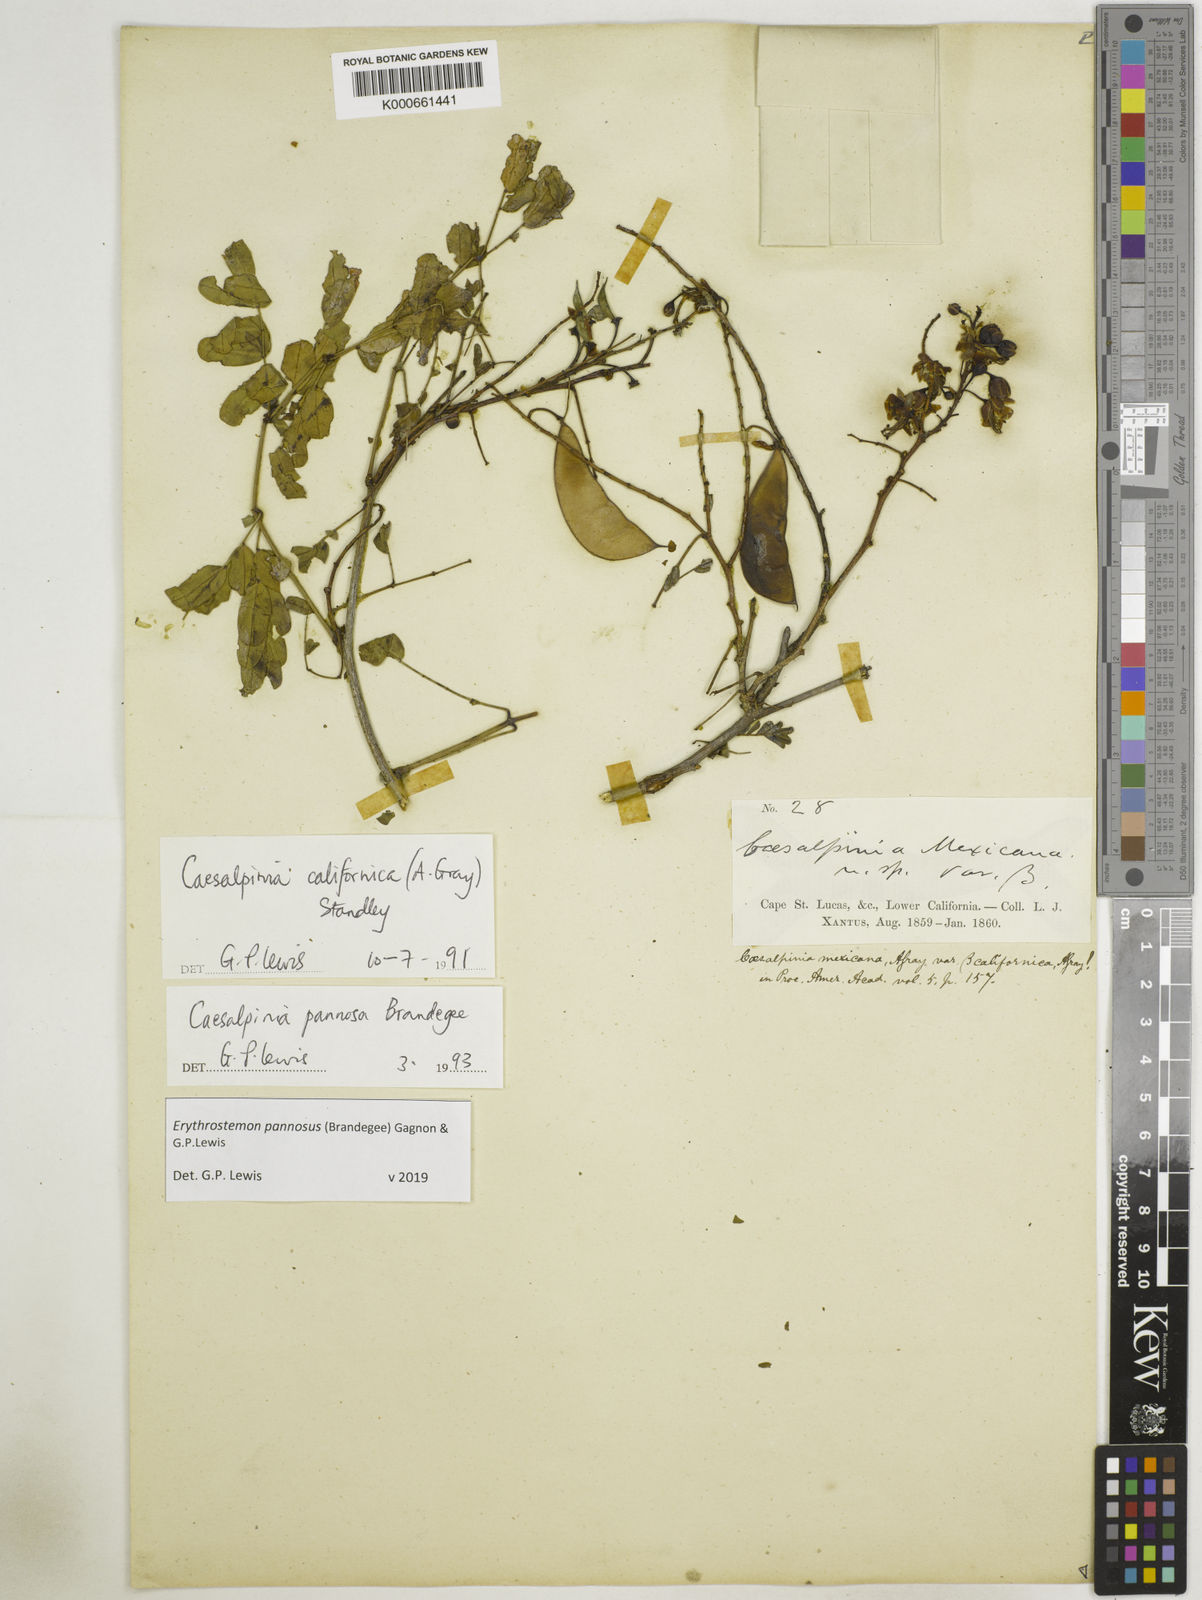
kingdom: Plantae
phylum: Tracheophyta
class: Magnoliopsida
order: Fabales
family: Fabaceae
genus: Erythrostemon
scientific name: Erythrostemon pannosus
